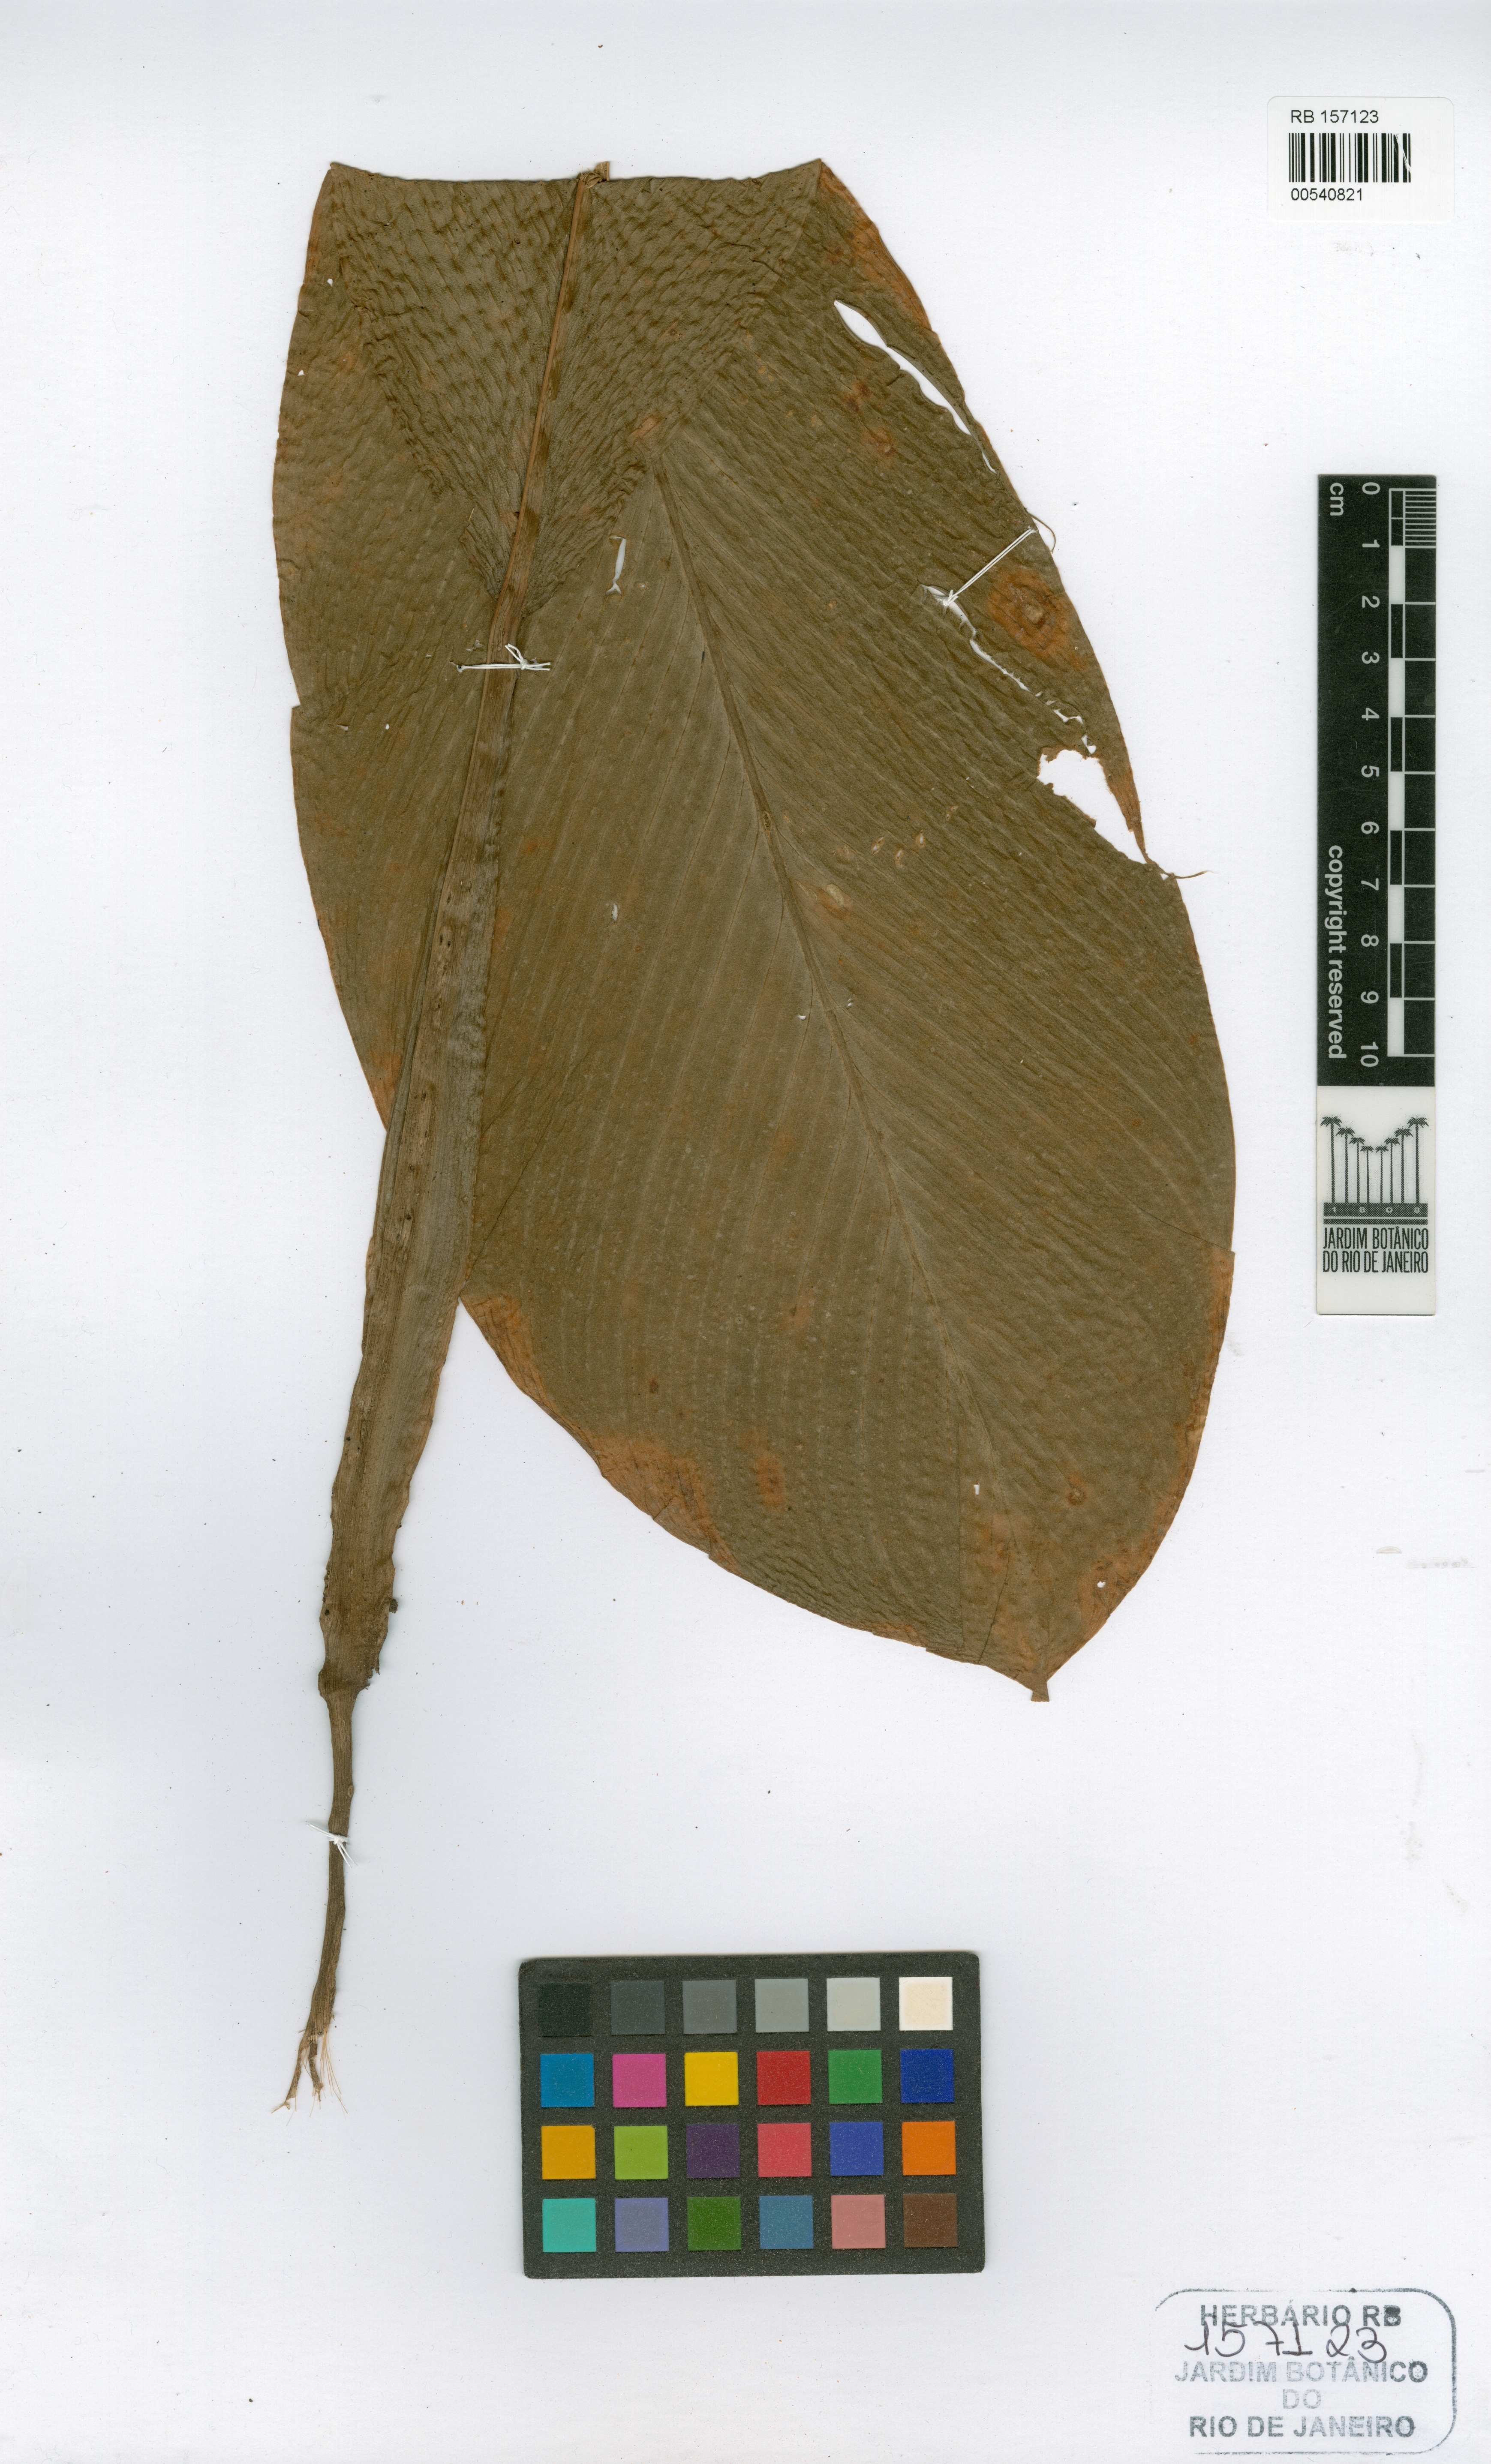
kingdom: Plantae
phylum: Tracheophyta
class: Liliopsida
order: Zingiberales
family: Marantaceae
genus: Goeppertia
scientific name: Goeppertia singularis
